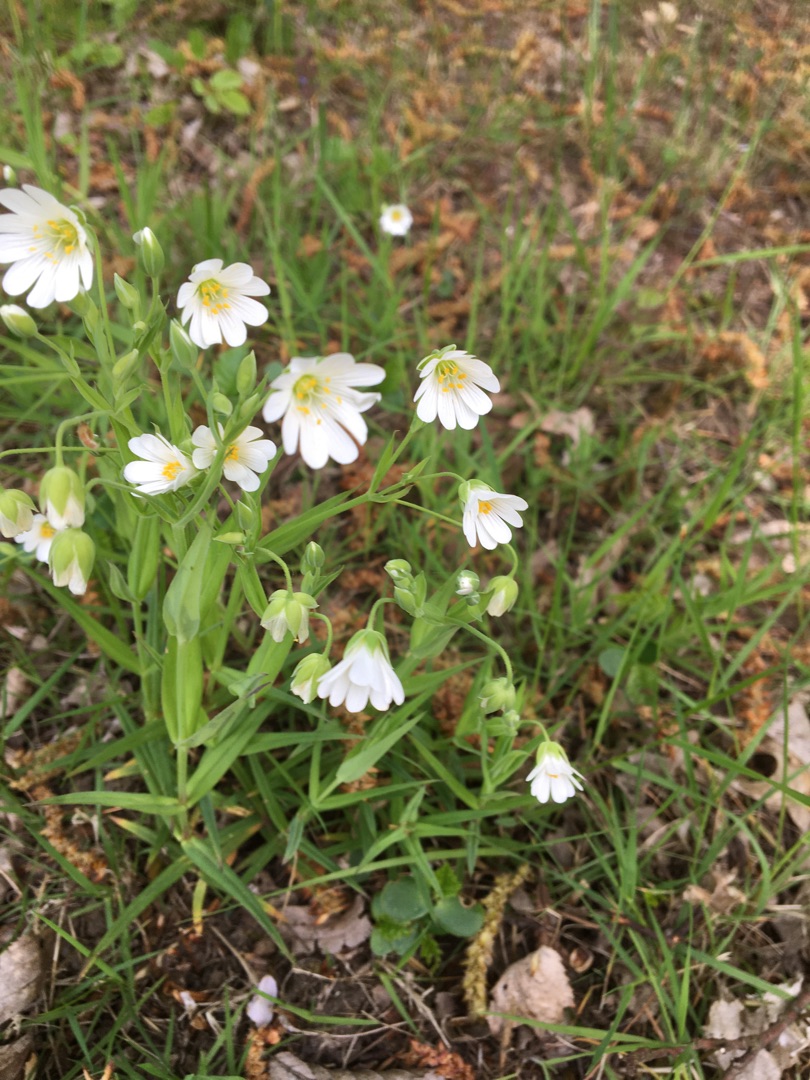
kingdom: Plantae
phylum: Tracheophyta
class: Magnoliopsida
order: Caryophyllales
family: Caryophyllaceae
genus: Rabelera
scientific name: Rabelera holostea
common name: Stor fladstjerne
